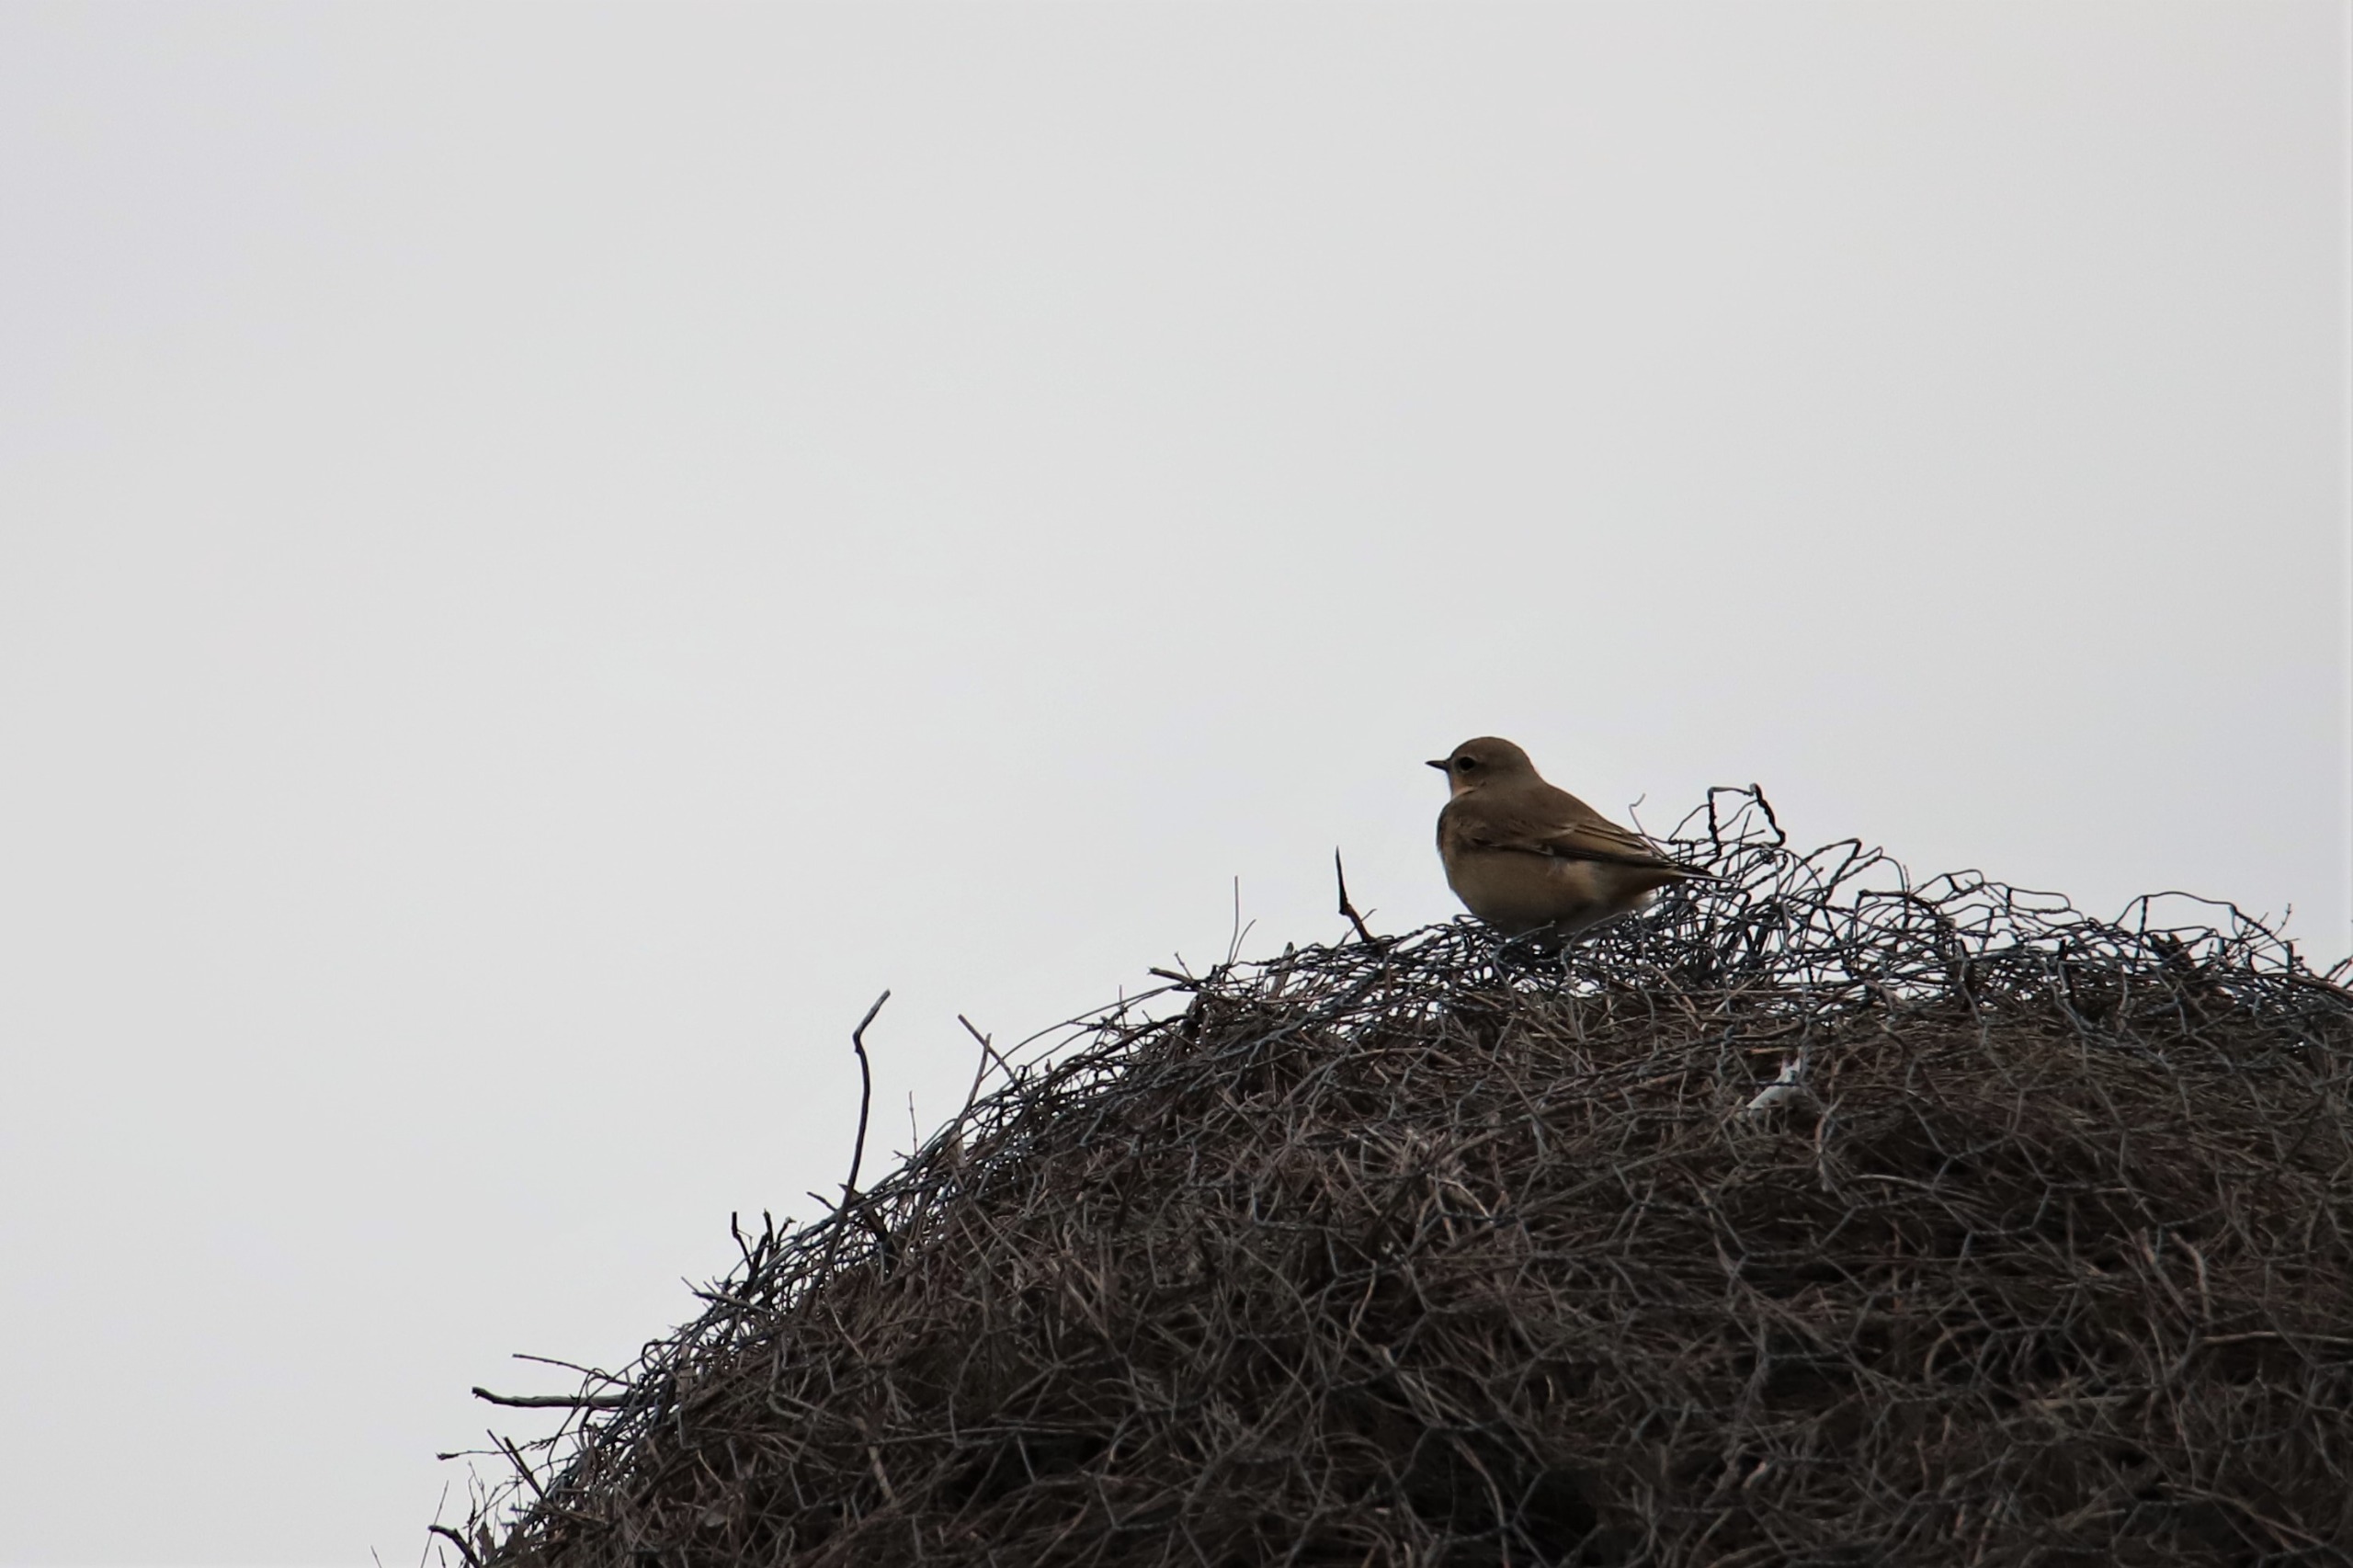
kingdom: Animalia
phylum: Chordata
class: Aves
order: Passeriformes
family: Muscicapidae
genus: Oenanthe
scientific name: Oenanthe oenanthe
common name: Stenpikker
